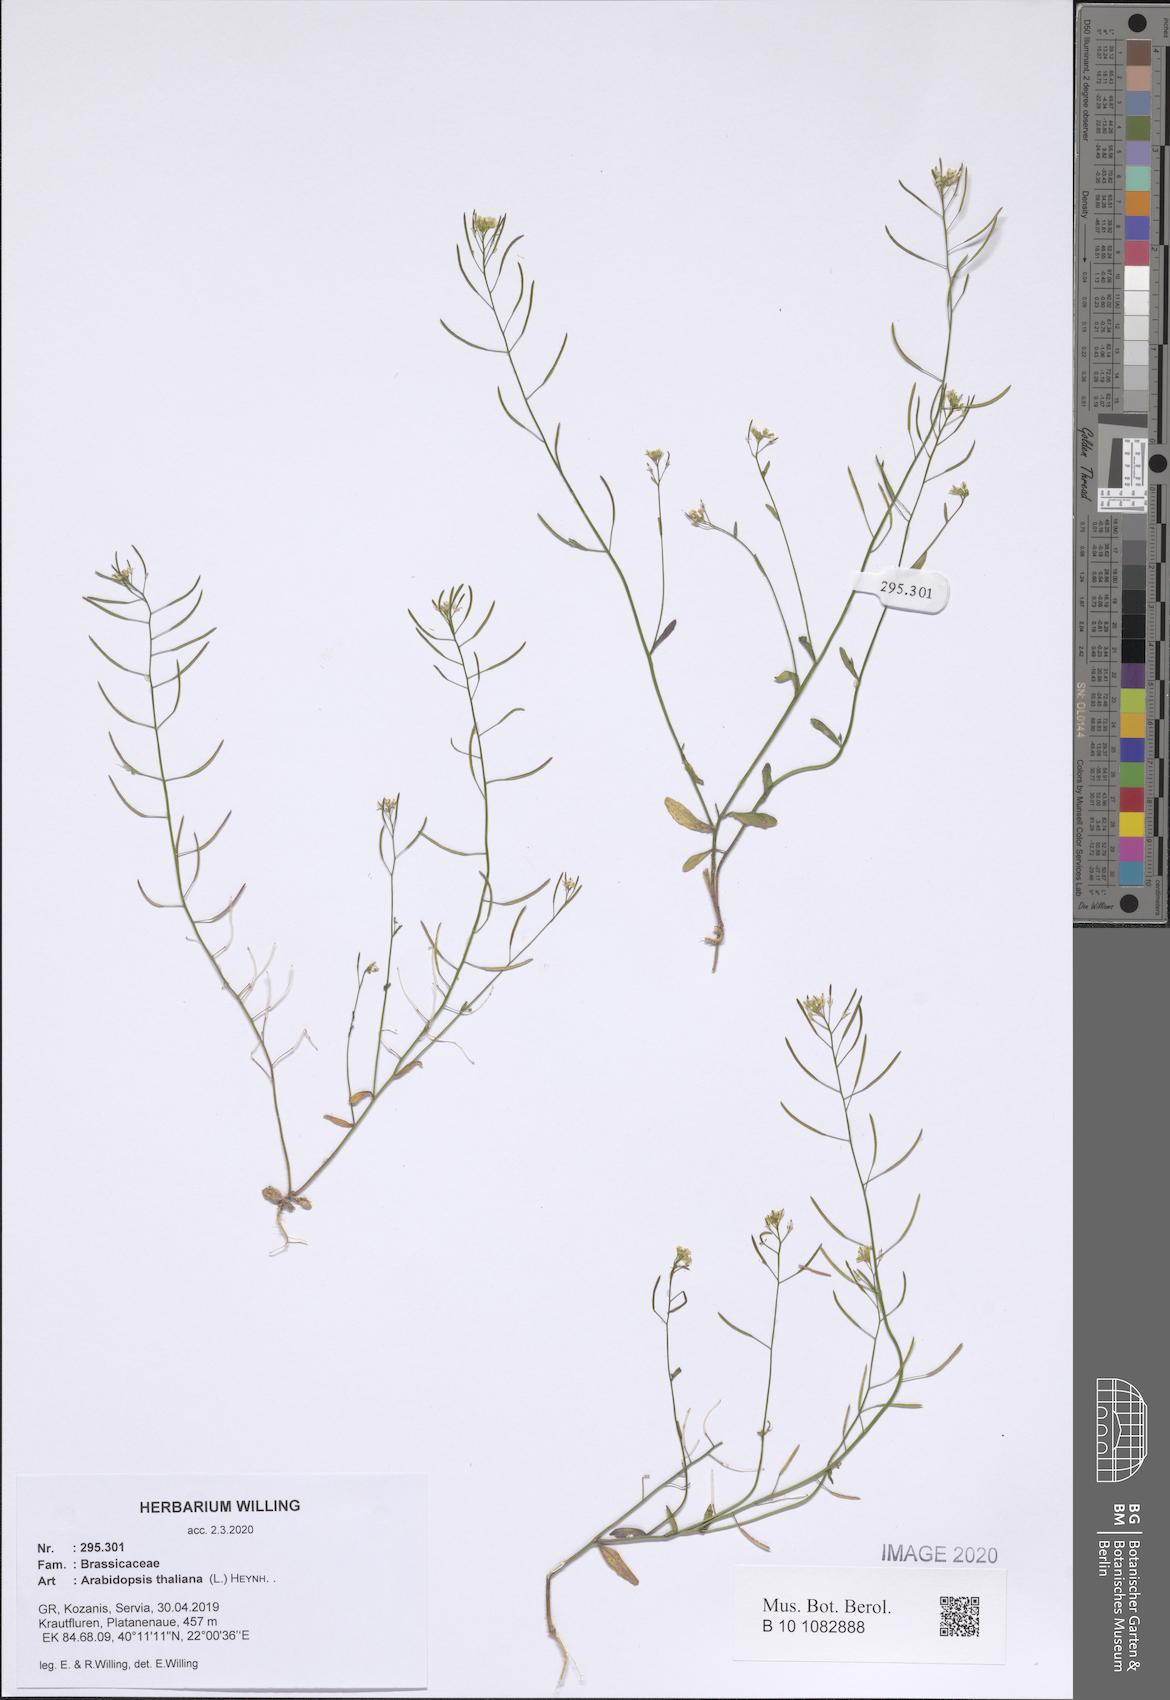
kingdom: Plantae
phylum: Tracheophyta
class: Magnoliopsida
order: Brassicales
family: Brassicaceae
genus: Arabidopsis
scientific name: Arabidopsis thaliana
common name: Thale cress
